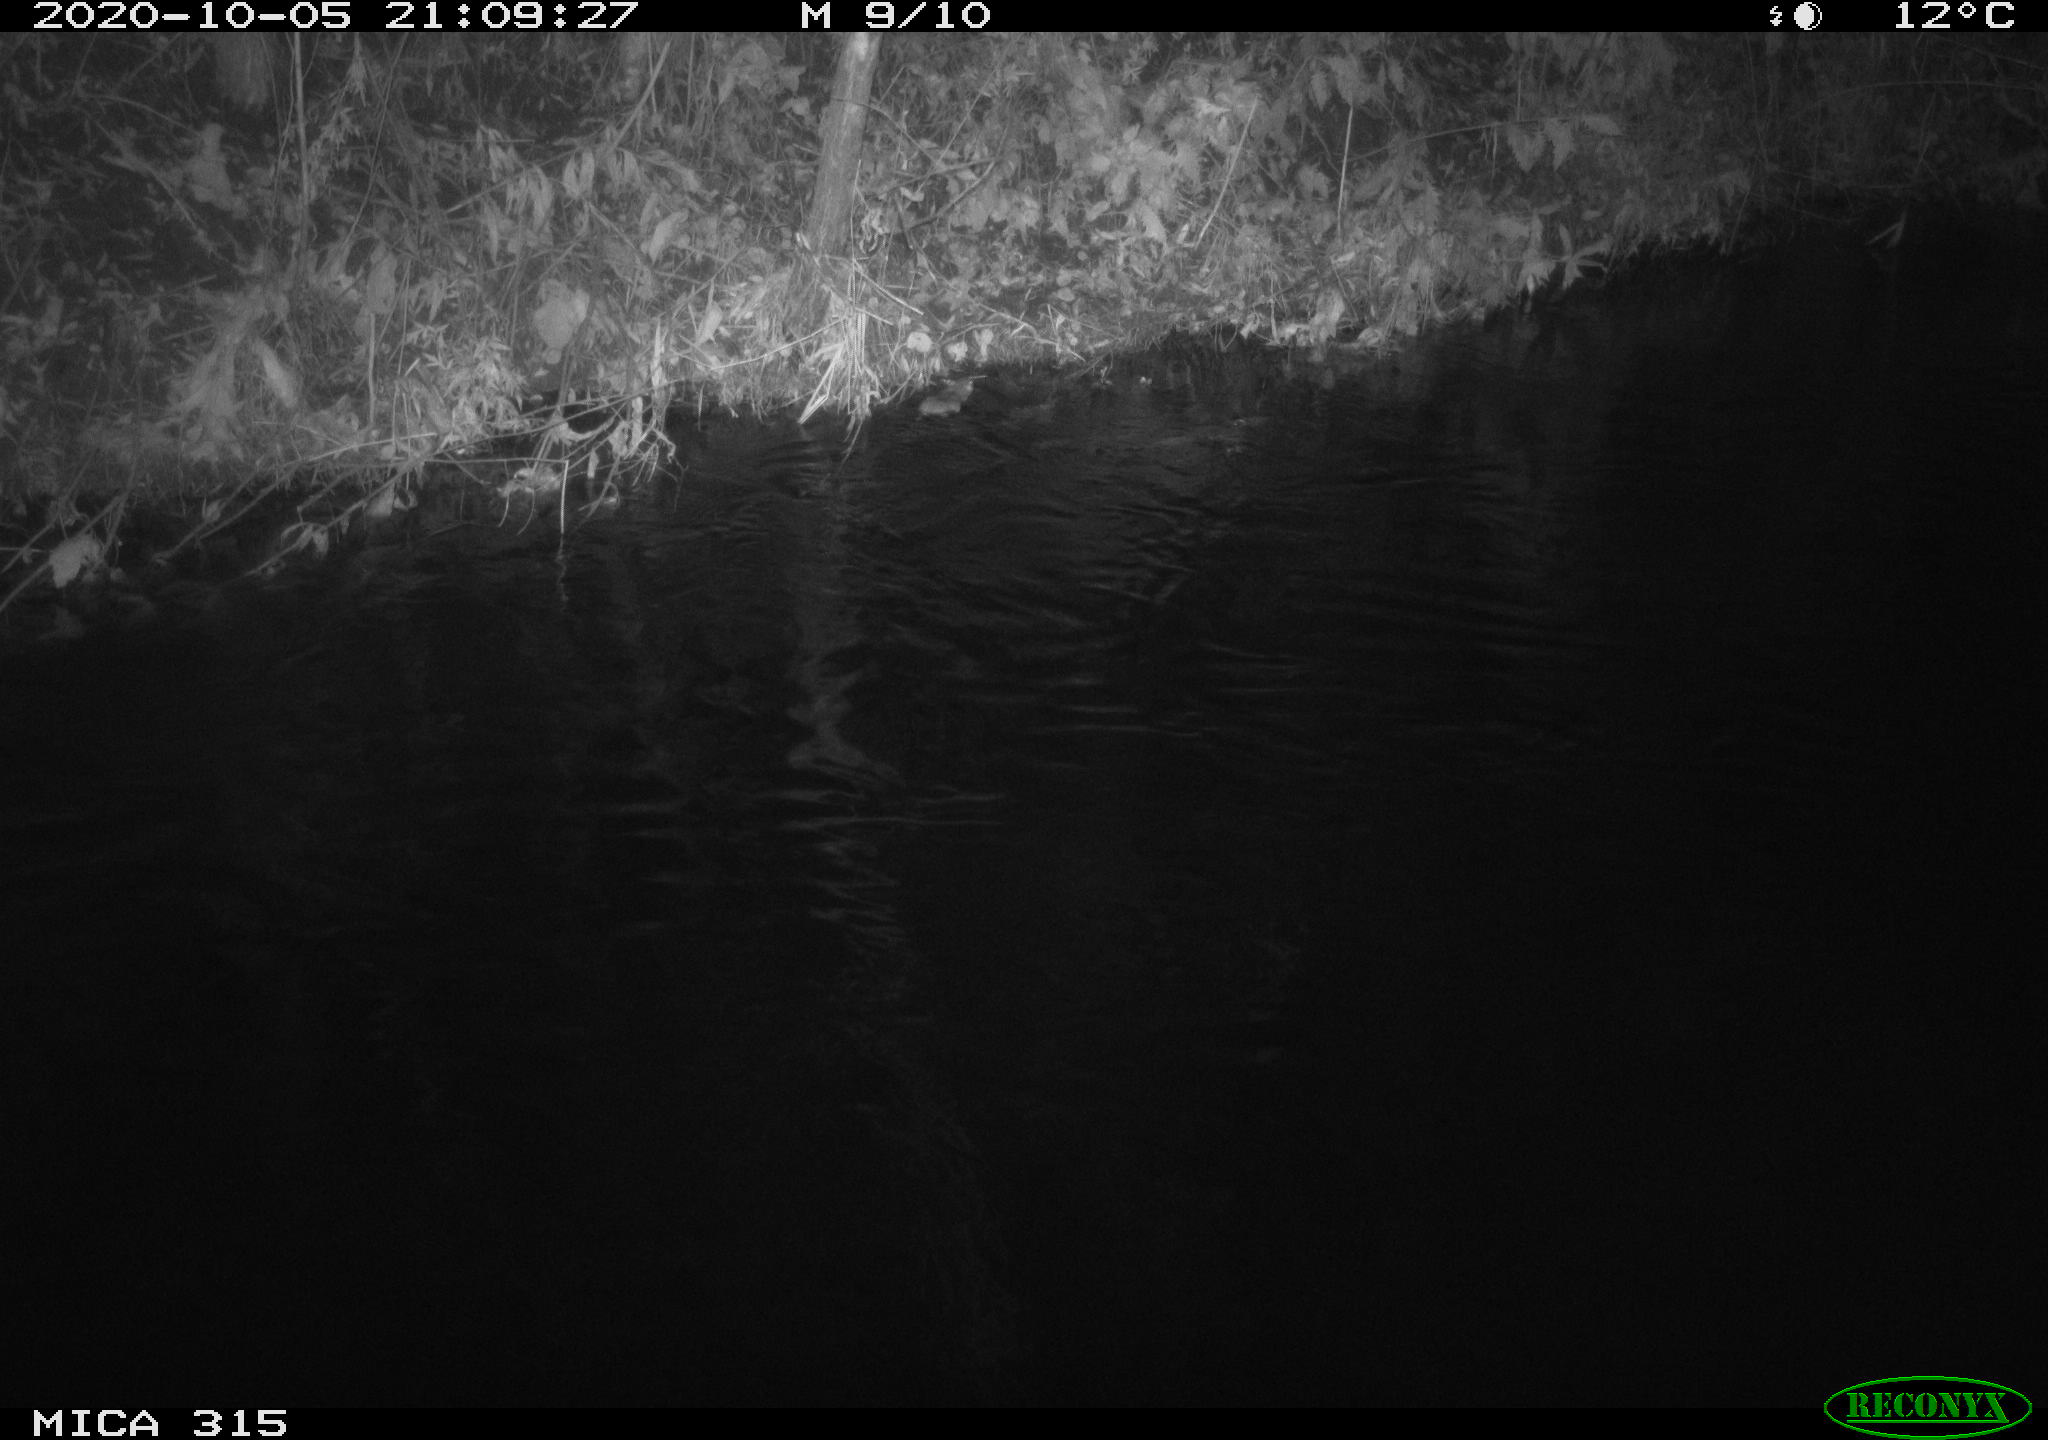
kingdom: Animalia
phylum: Chordata
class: Mammalia
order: Rodentia
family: Muridae
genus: Rattus
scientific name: Rattus norvegicus
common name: Brown rat
